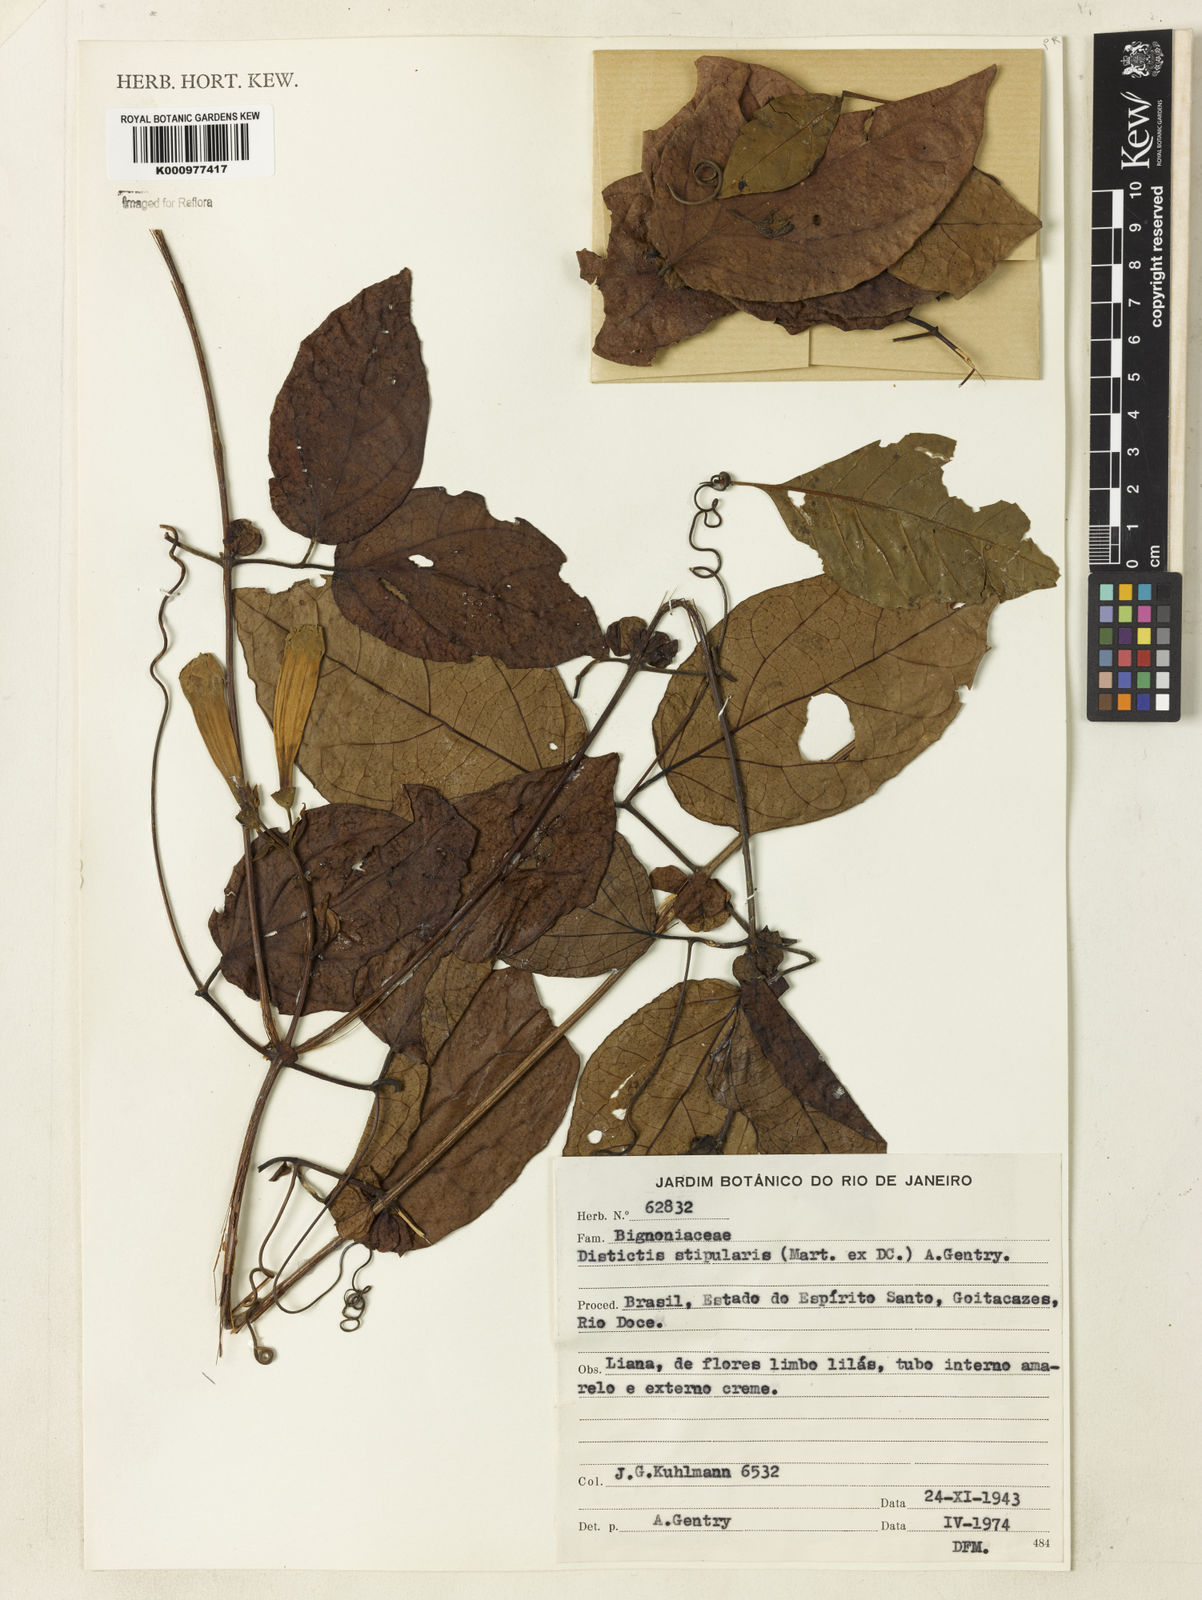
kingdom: Plantae
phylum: Tracheophyta
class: Magnoliopsida
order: Lamiales
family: Bignoniaceae
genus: Amphilophium
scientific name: Amphilophium frutescens
